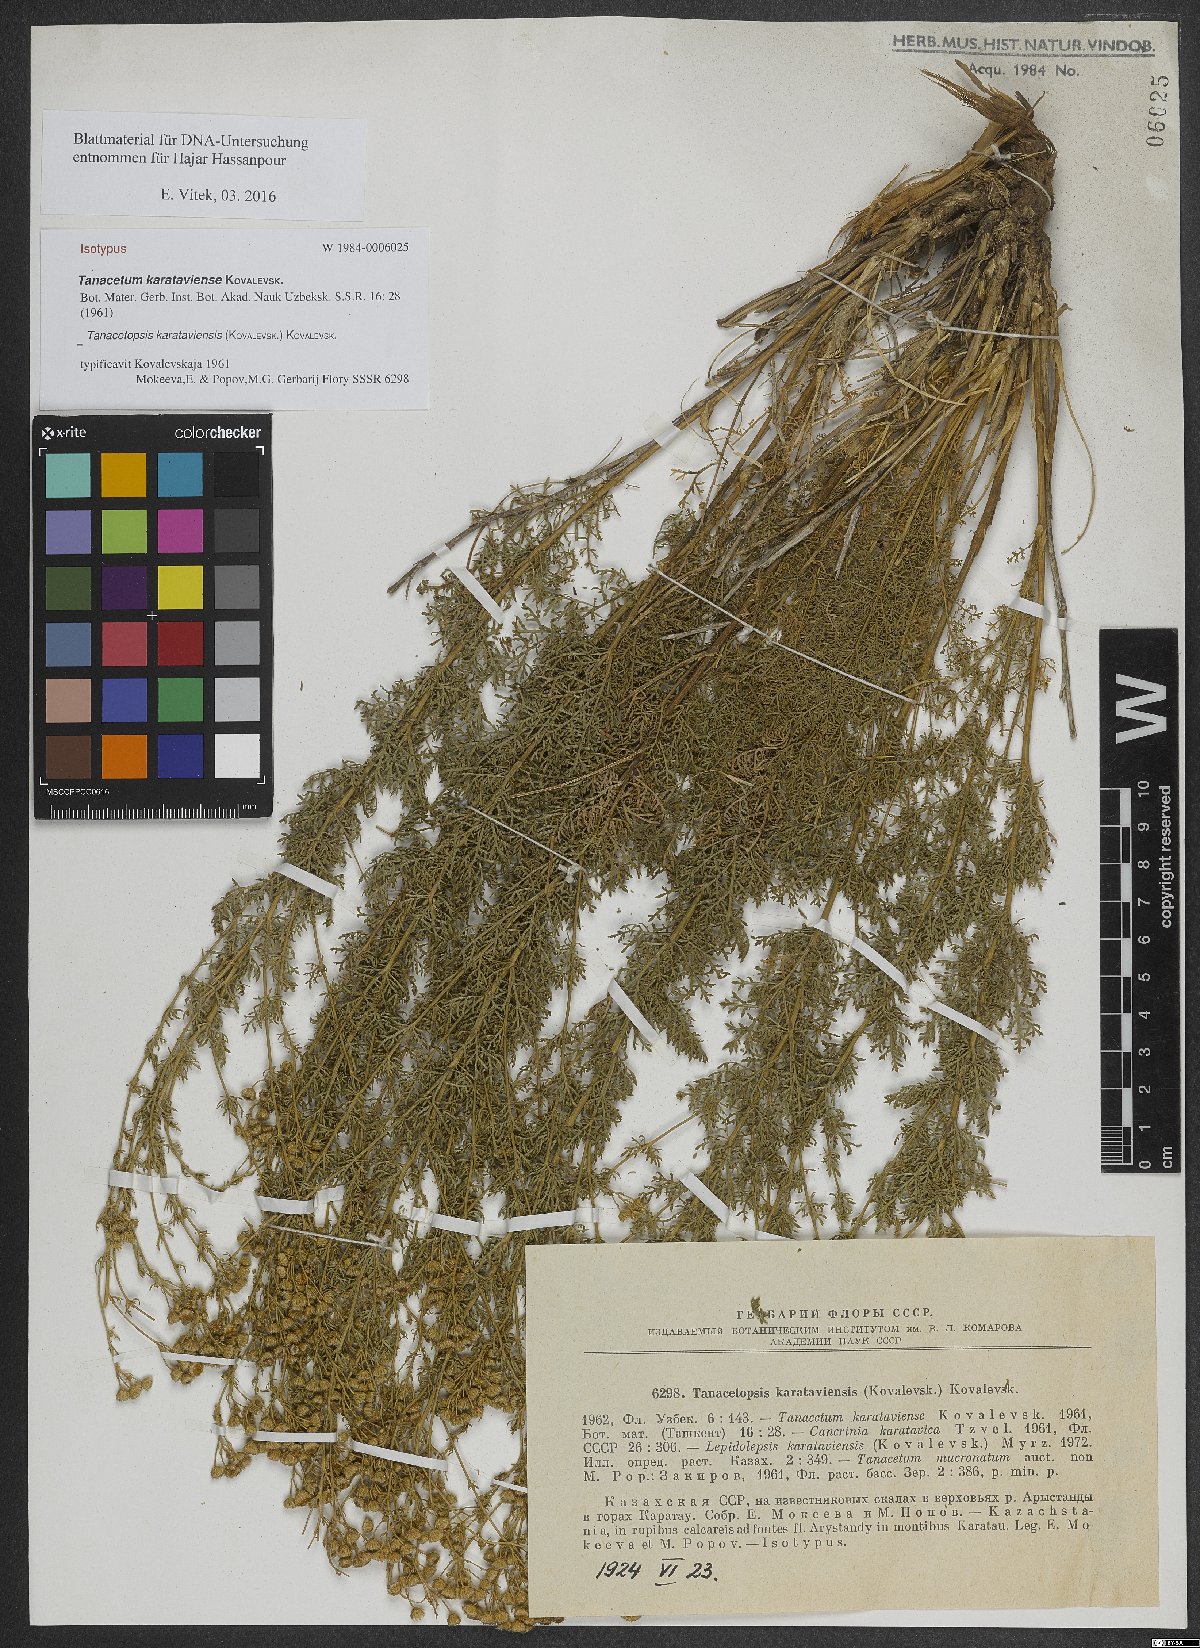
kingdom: Plantae
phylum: Tracheophyta
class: Magnoliopsida
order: Asterales
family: Asteraceae
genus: Tanacetopsis
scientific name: Tanacetopsis karataviensis
